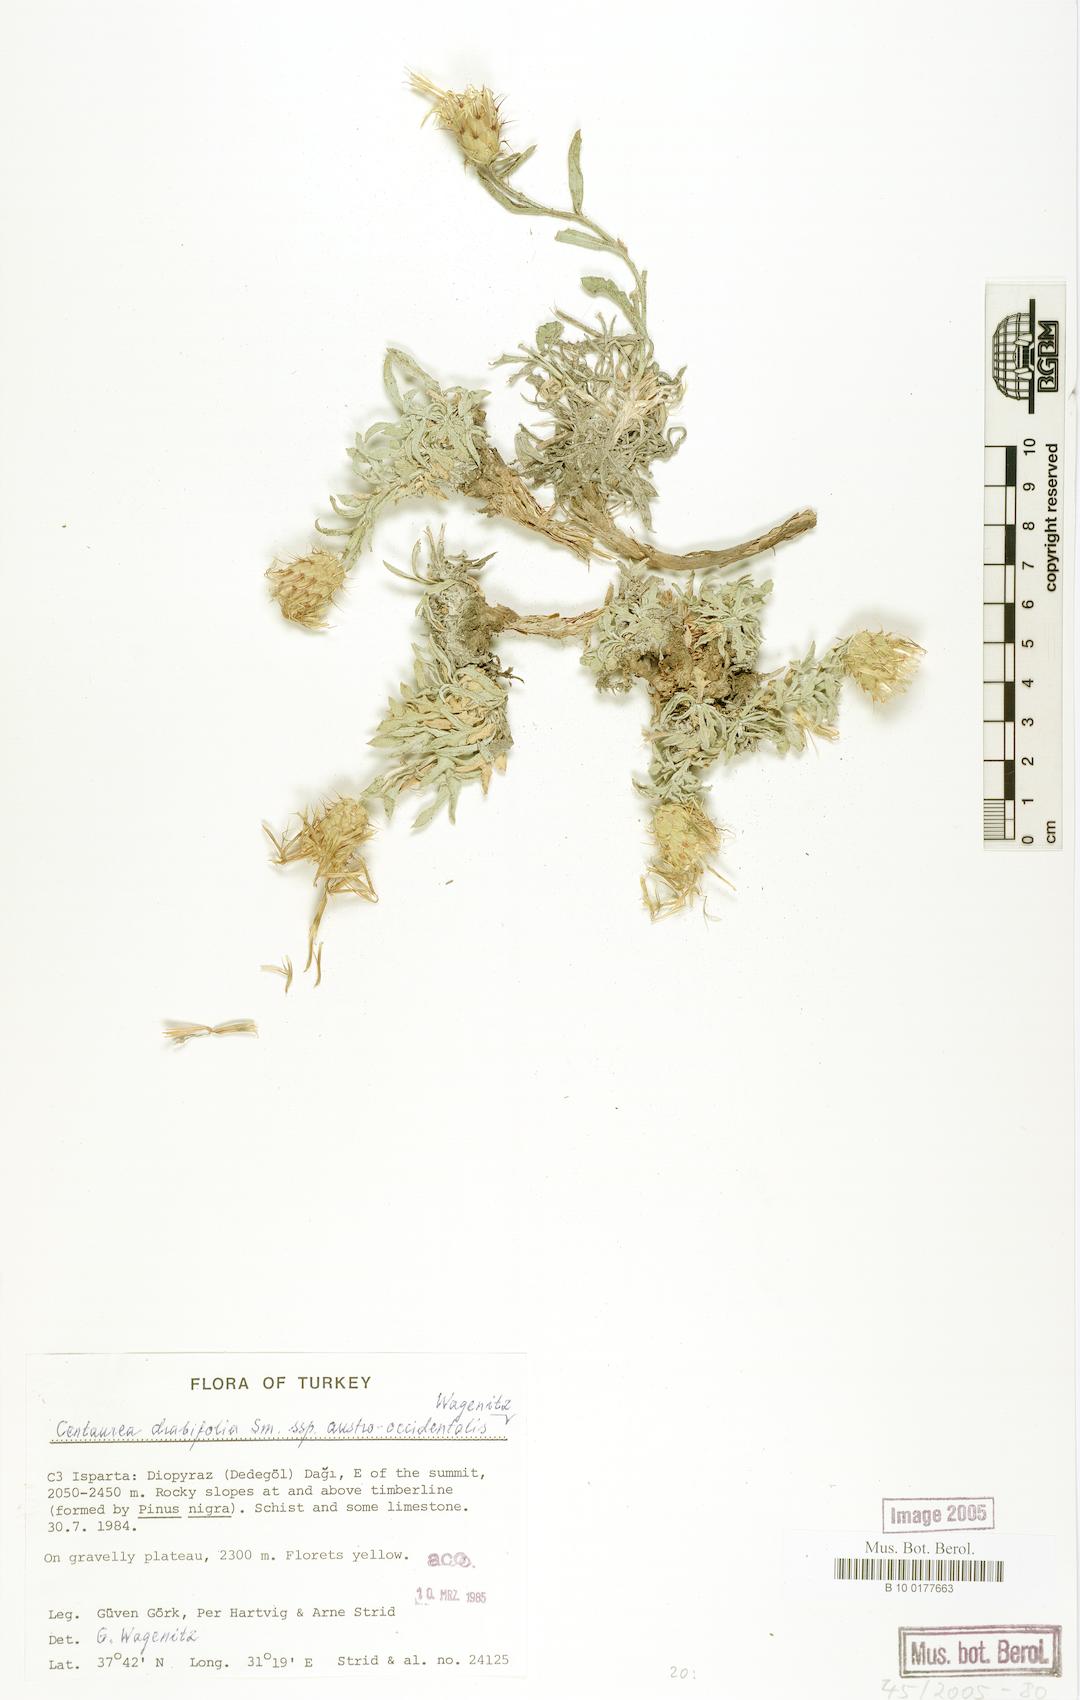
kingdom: Plantae
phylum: Tracheophyta
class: Magnoliopsida
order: Asterales
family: Asteraceae
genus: Centaurea
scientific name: Centaurea drabifolia
